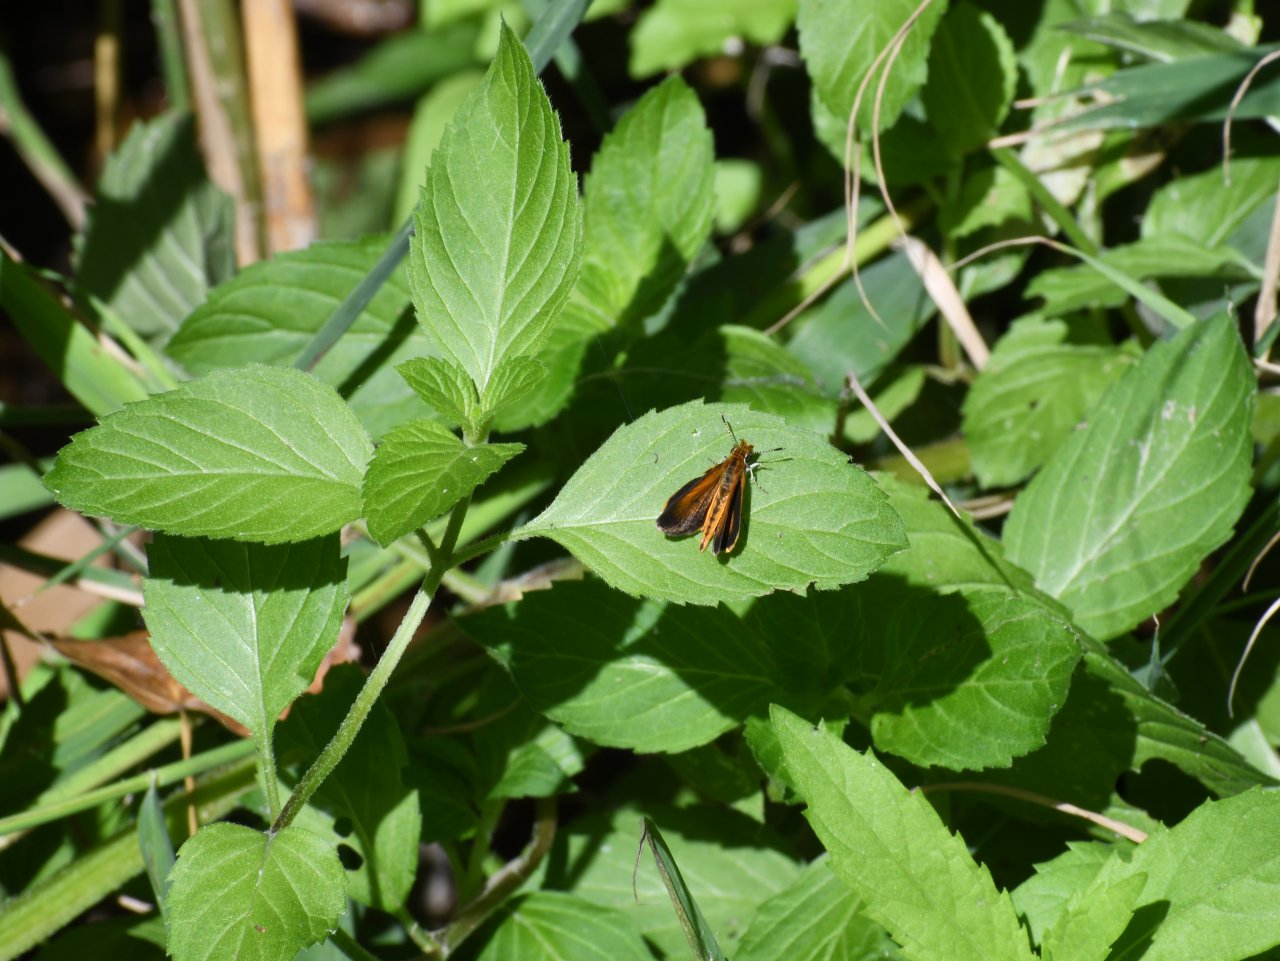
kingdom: Animalia
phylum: Arthropoda
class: Insecta
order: Lepidoptera
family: Hesperiidae
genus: Ancyloxypha
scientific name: Ancyloxypha numitor
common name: Least Skipper
